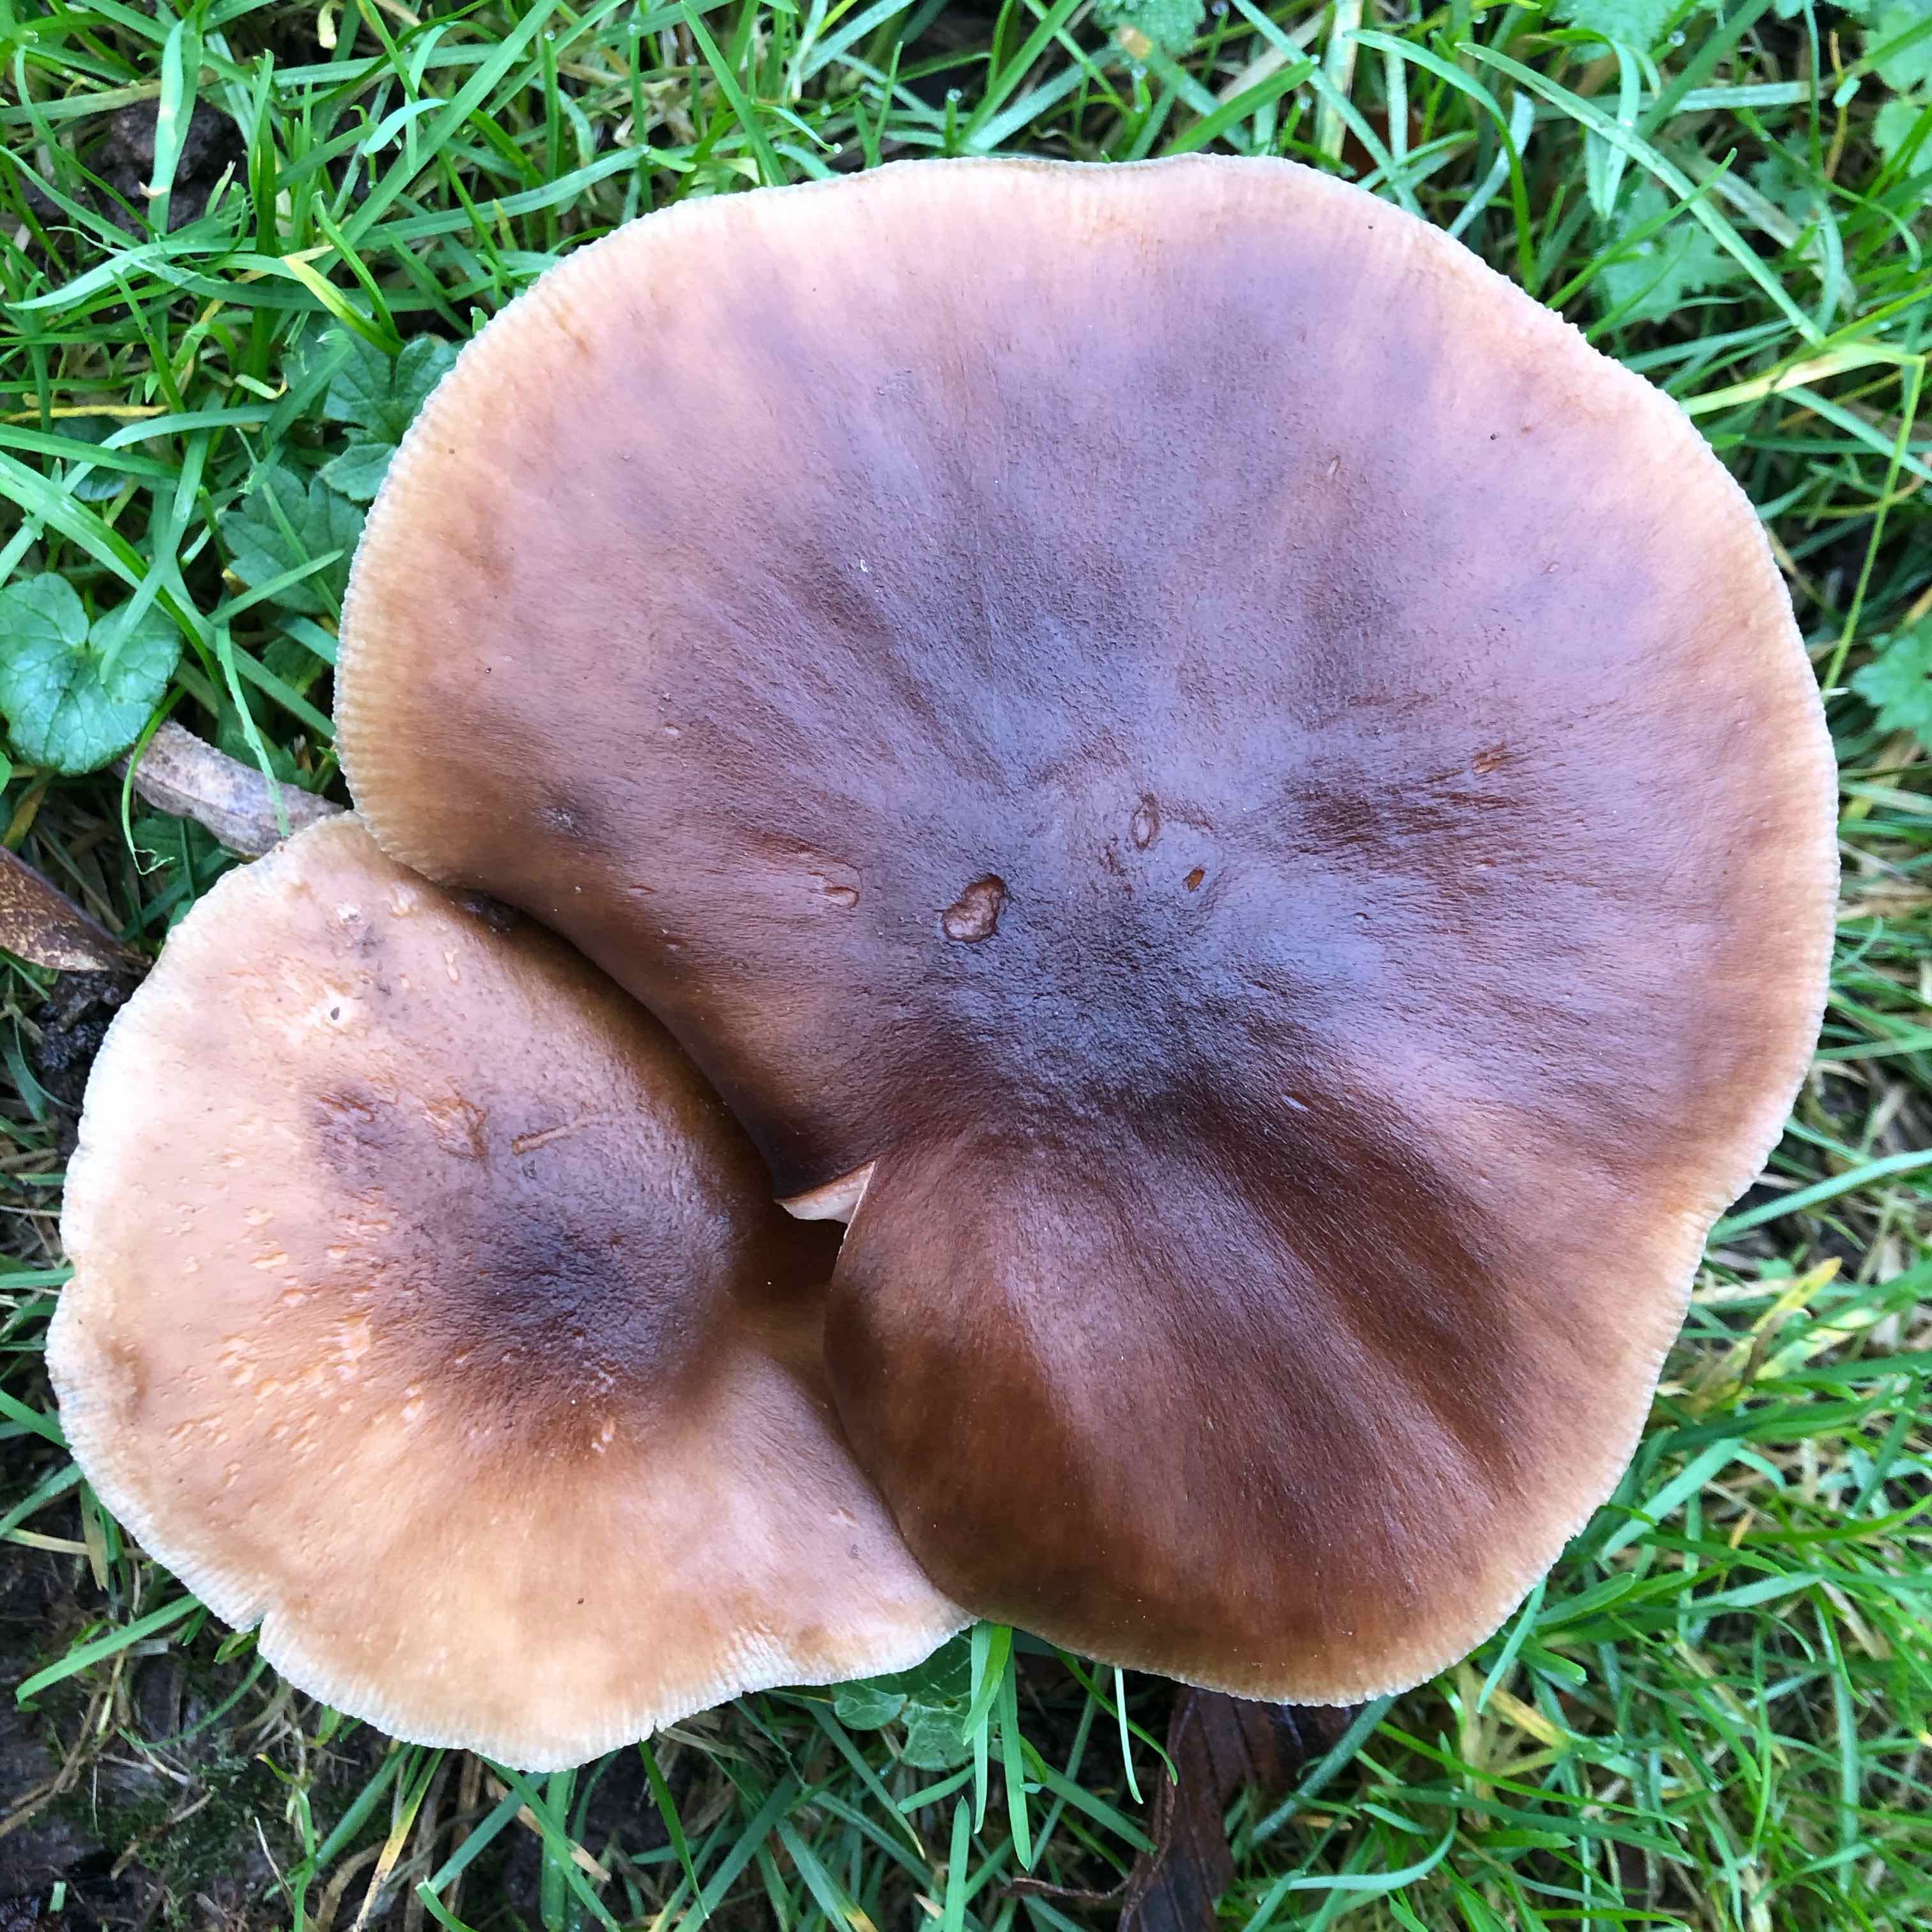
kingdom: Fungi
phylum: Basidiomycota
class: Agaricomycetes
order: Agaricales
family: Pluteaceae
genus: Pluteus
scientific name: Pluteus cervinus
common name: sodfarvet skærmhat
